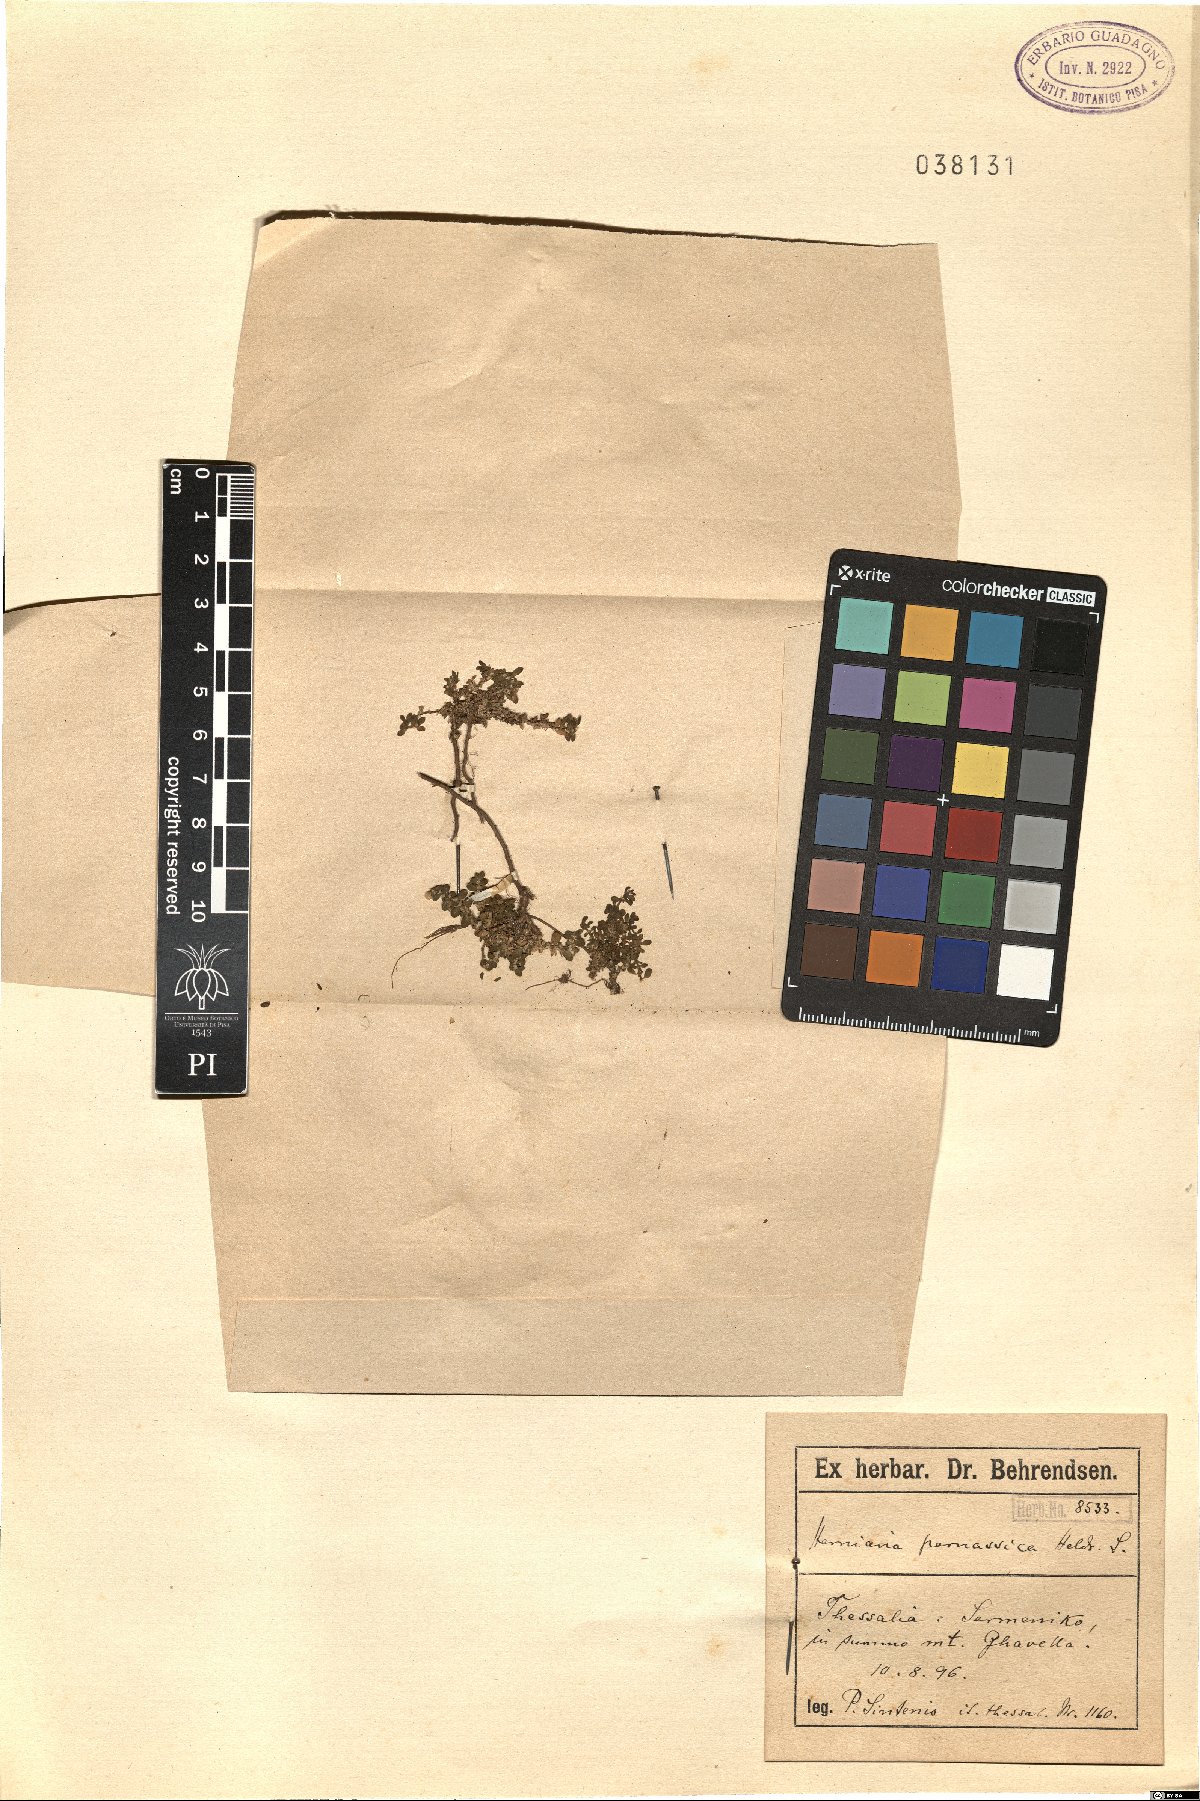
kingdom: Plantae
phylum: Tracheophyta
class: Magnoliopsida
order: Caryophyllales
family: Caryophyllaceae
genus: Herniaria
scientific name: Herniaria parnassica
